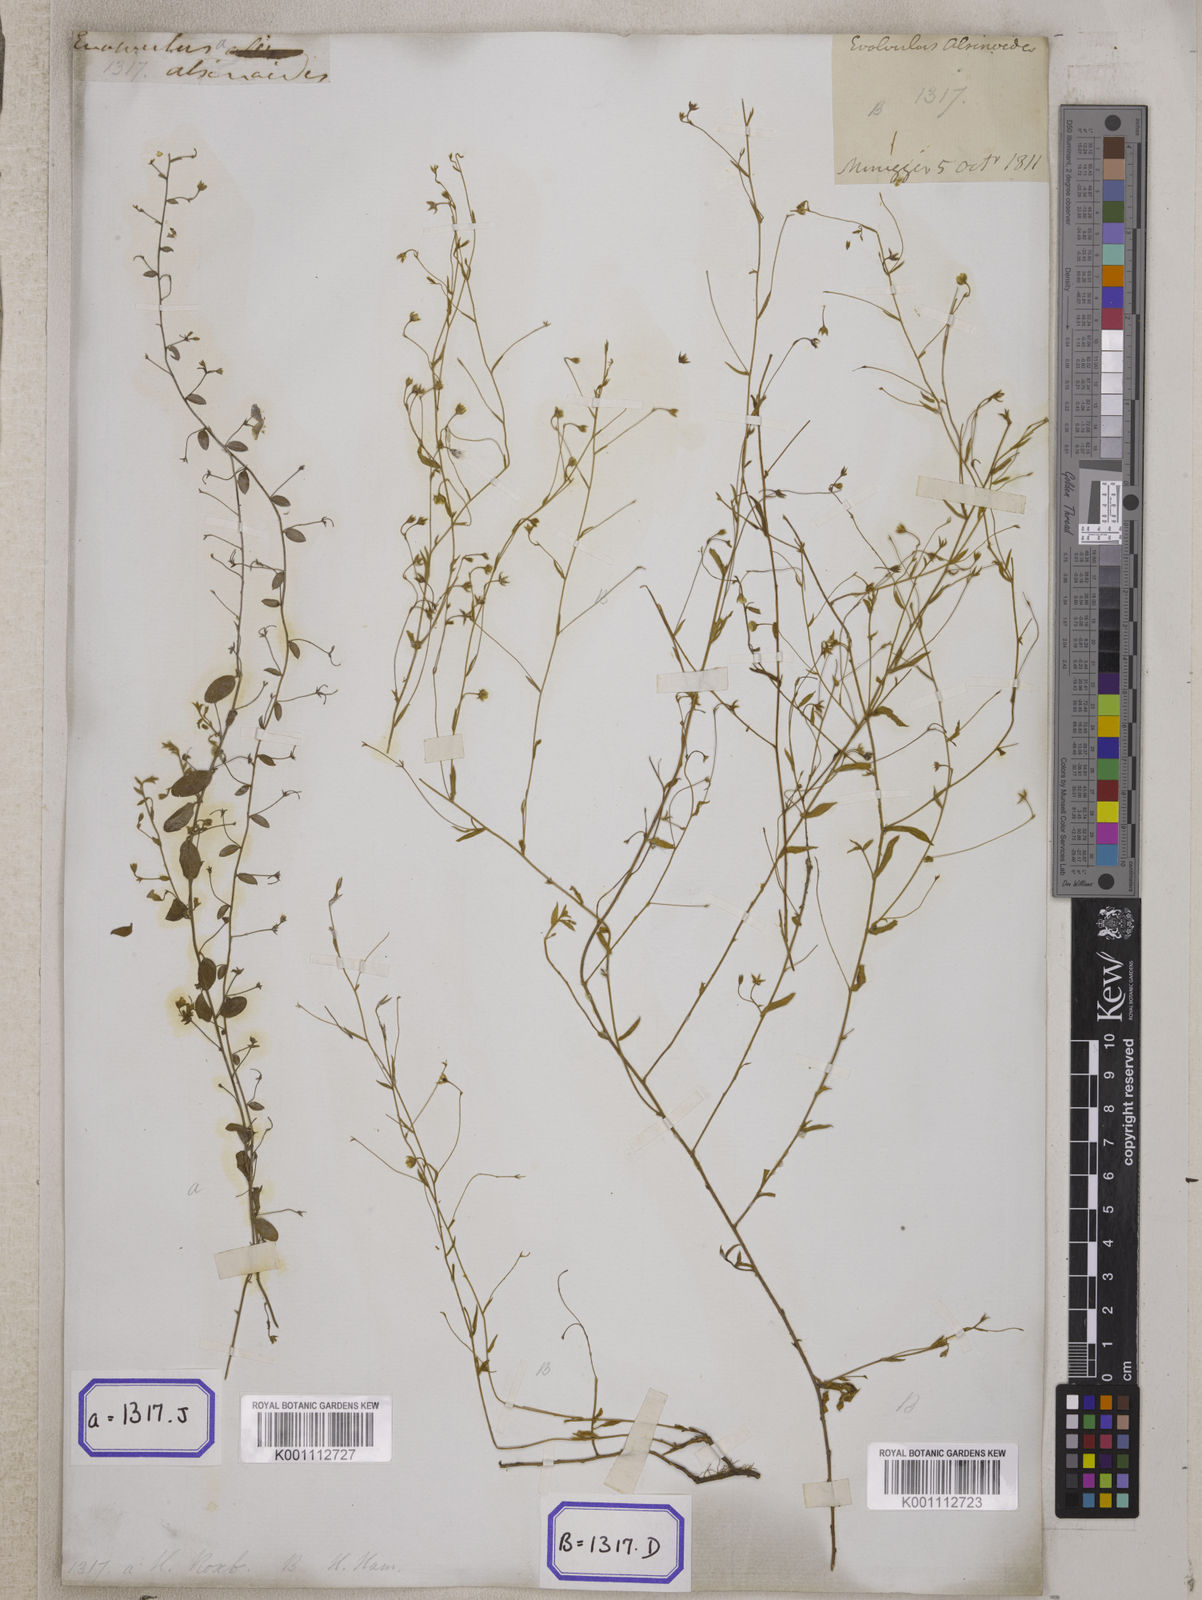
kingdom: Plantae
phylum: Tracheophyta
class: Magnoliopsida
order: Solanales
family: Convolvulaceae
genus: Evolvulus
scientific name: Evolvulus alsinoides
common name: Slender dwarf morning-glory
